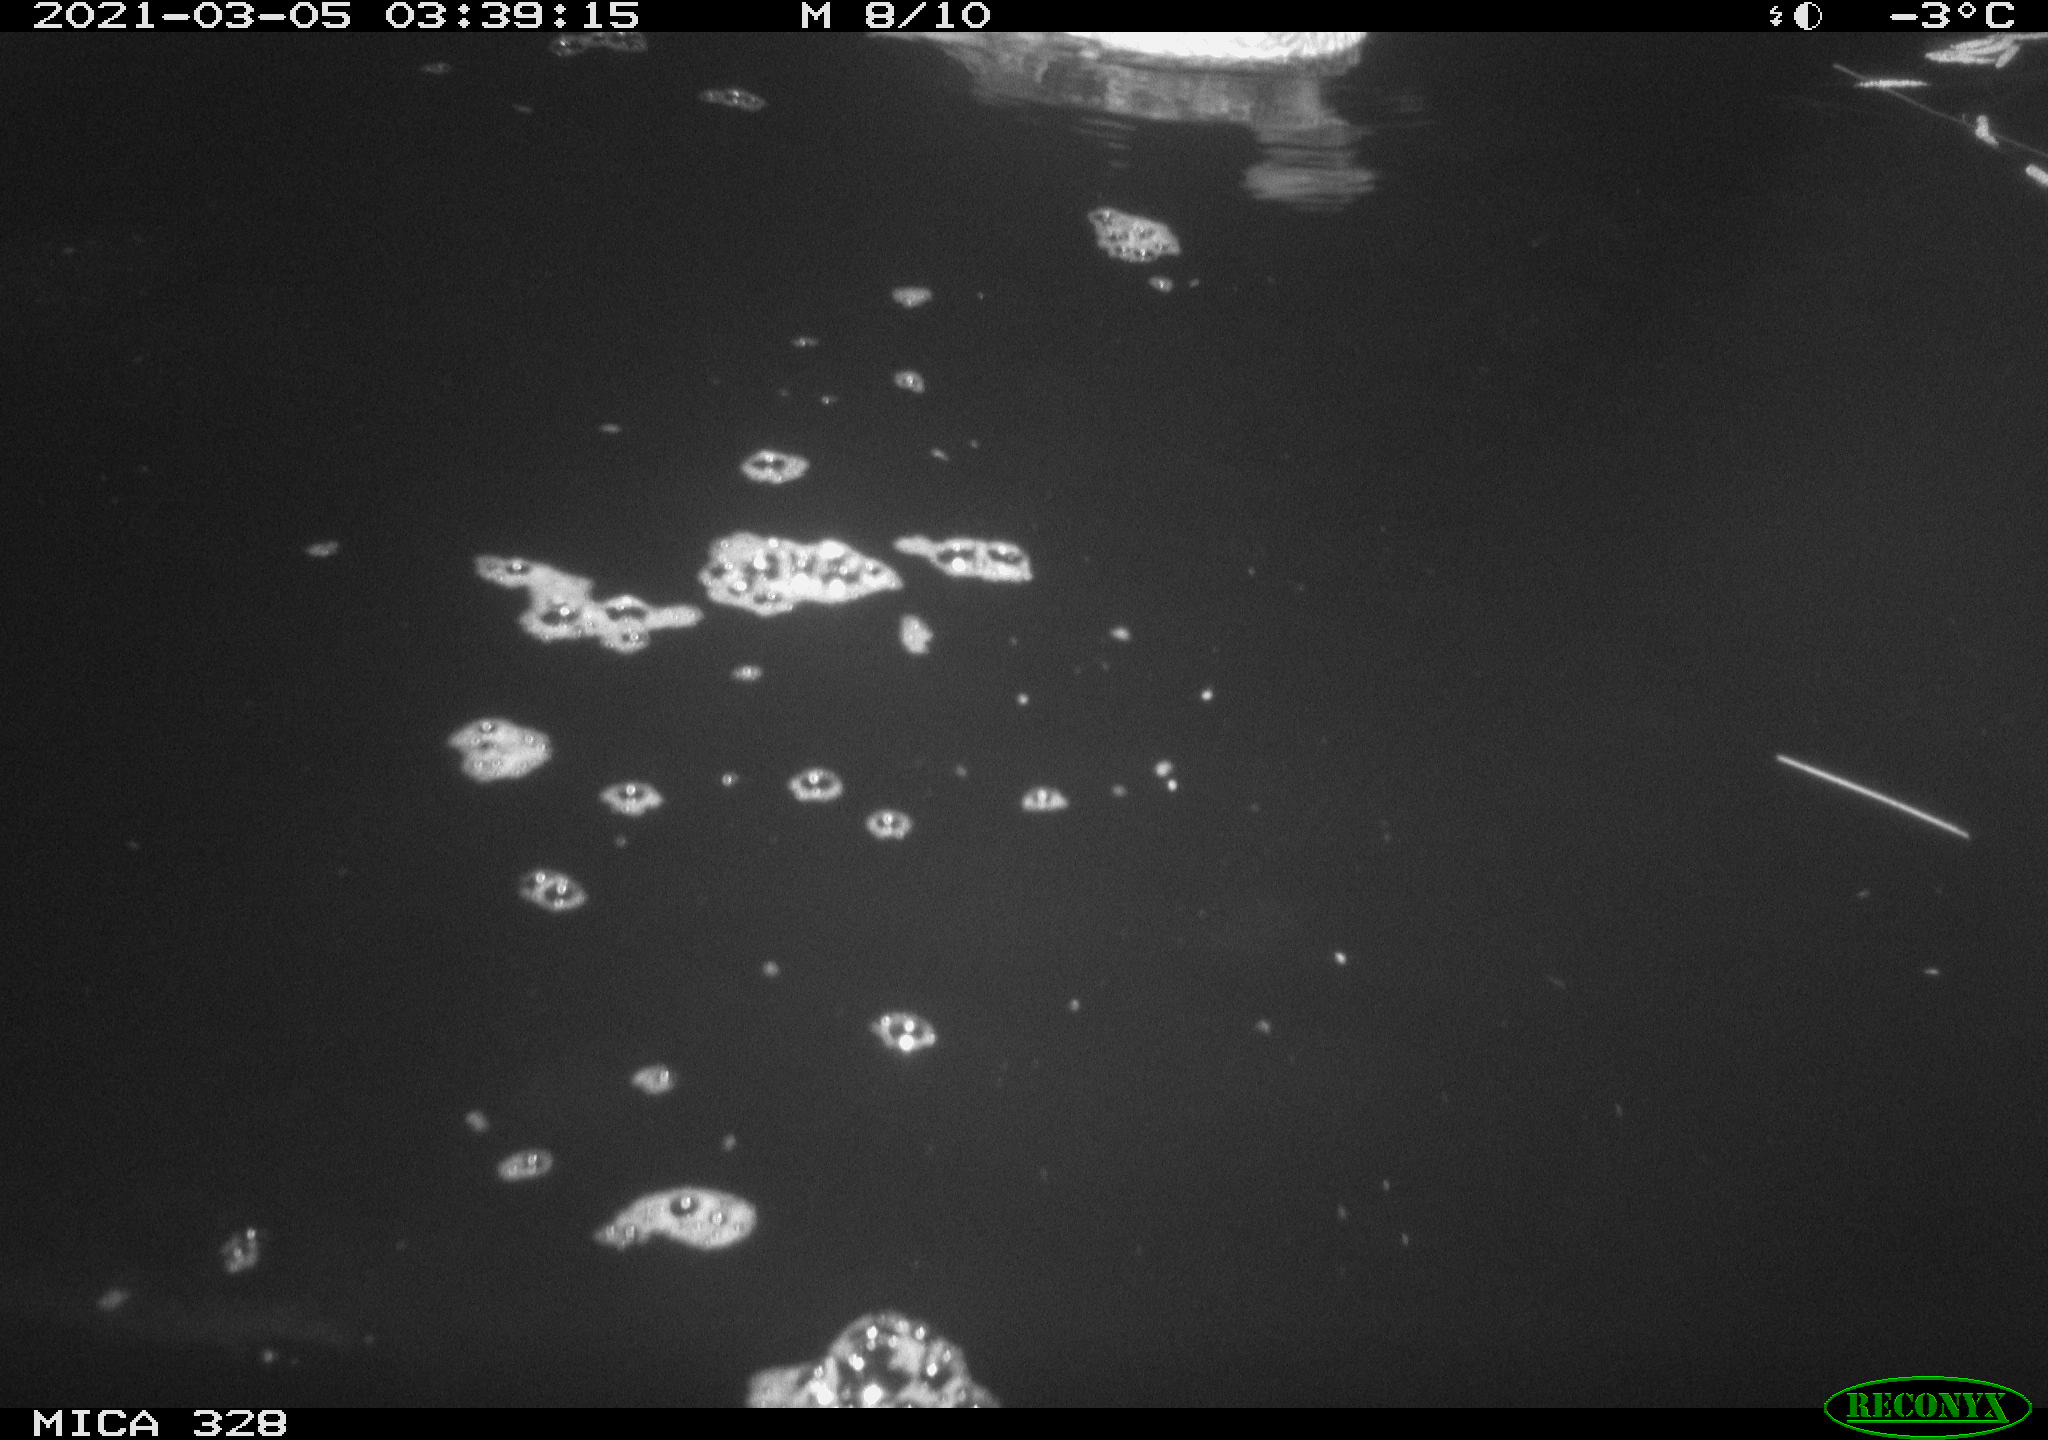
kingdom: Animalia
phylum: Chordata
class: Aves
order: Anseriformes
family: Anatidae
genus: Anas
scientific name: Anas platyrhynchos
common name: Mallard
